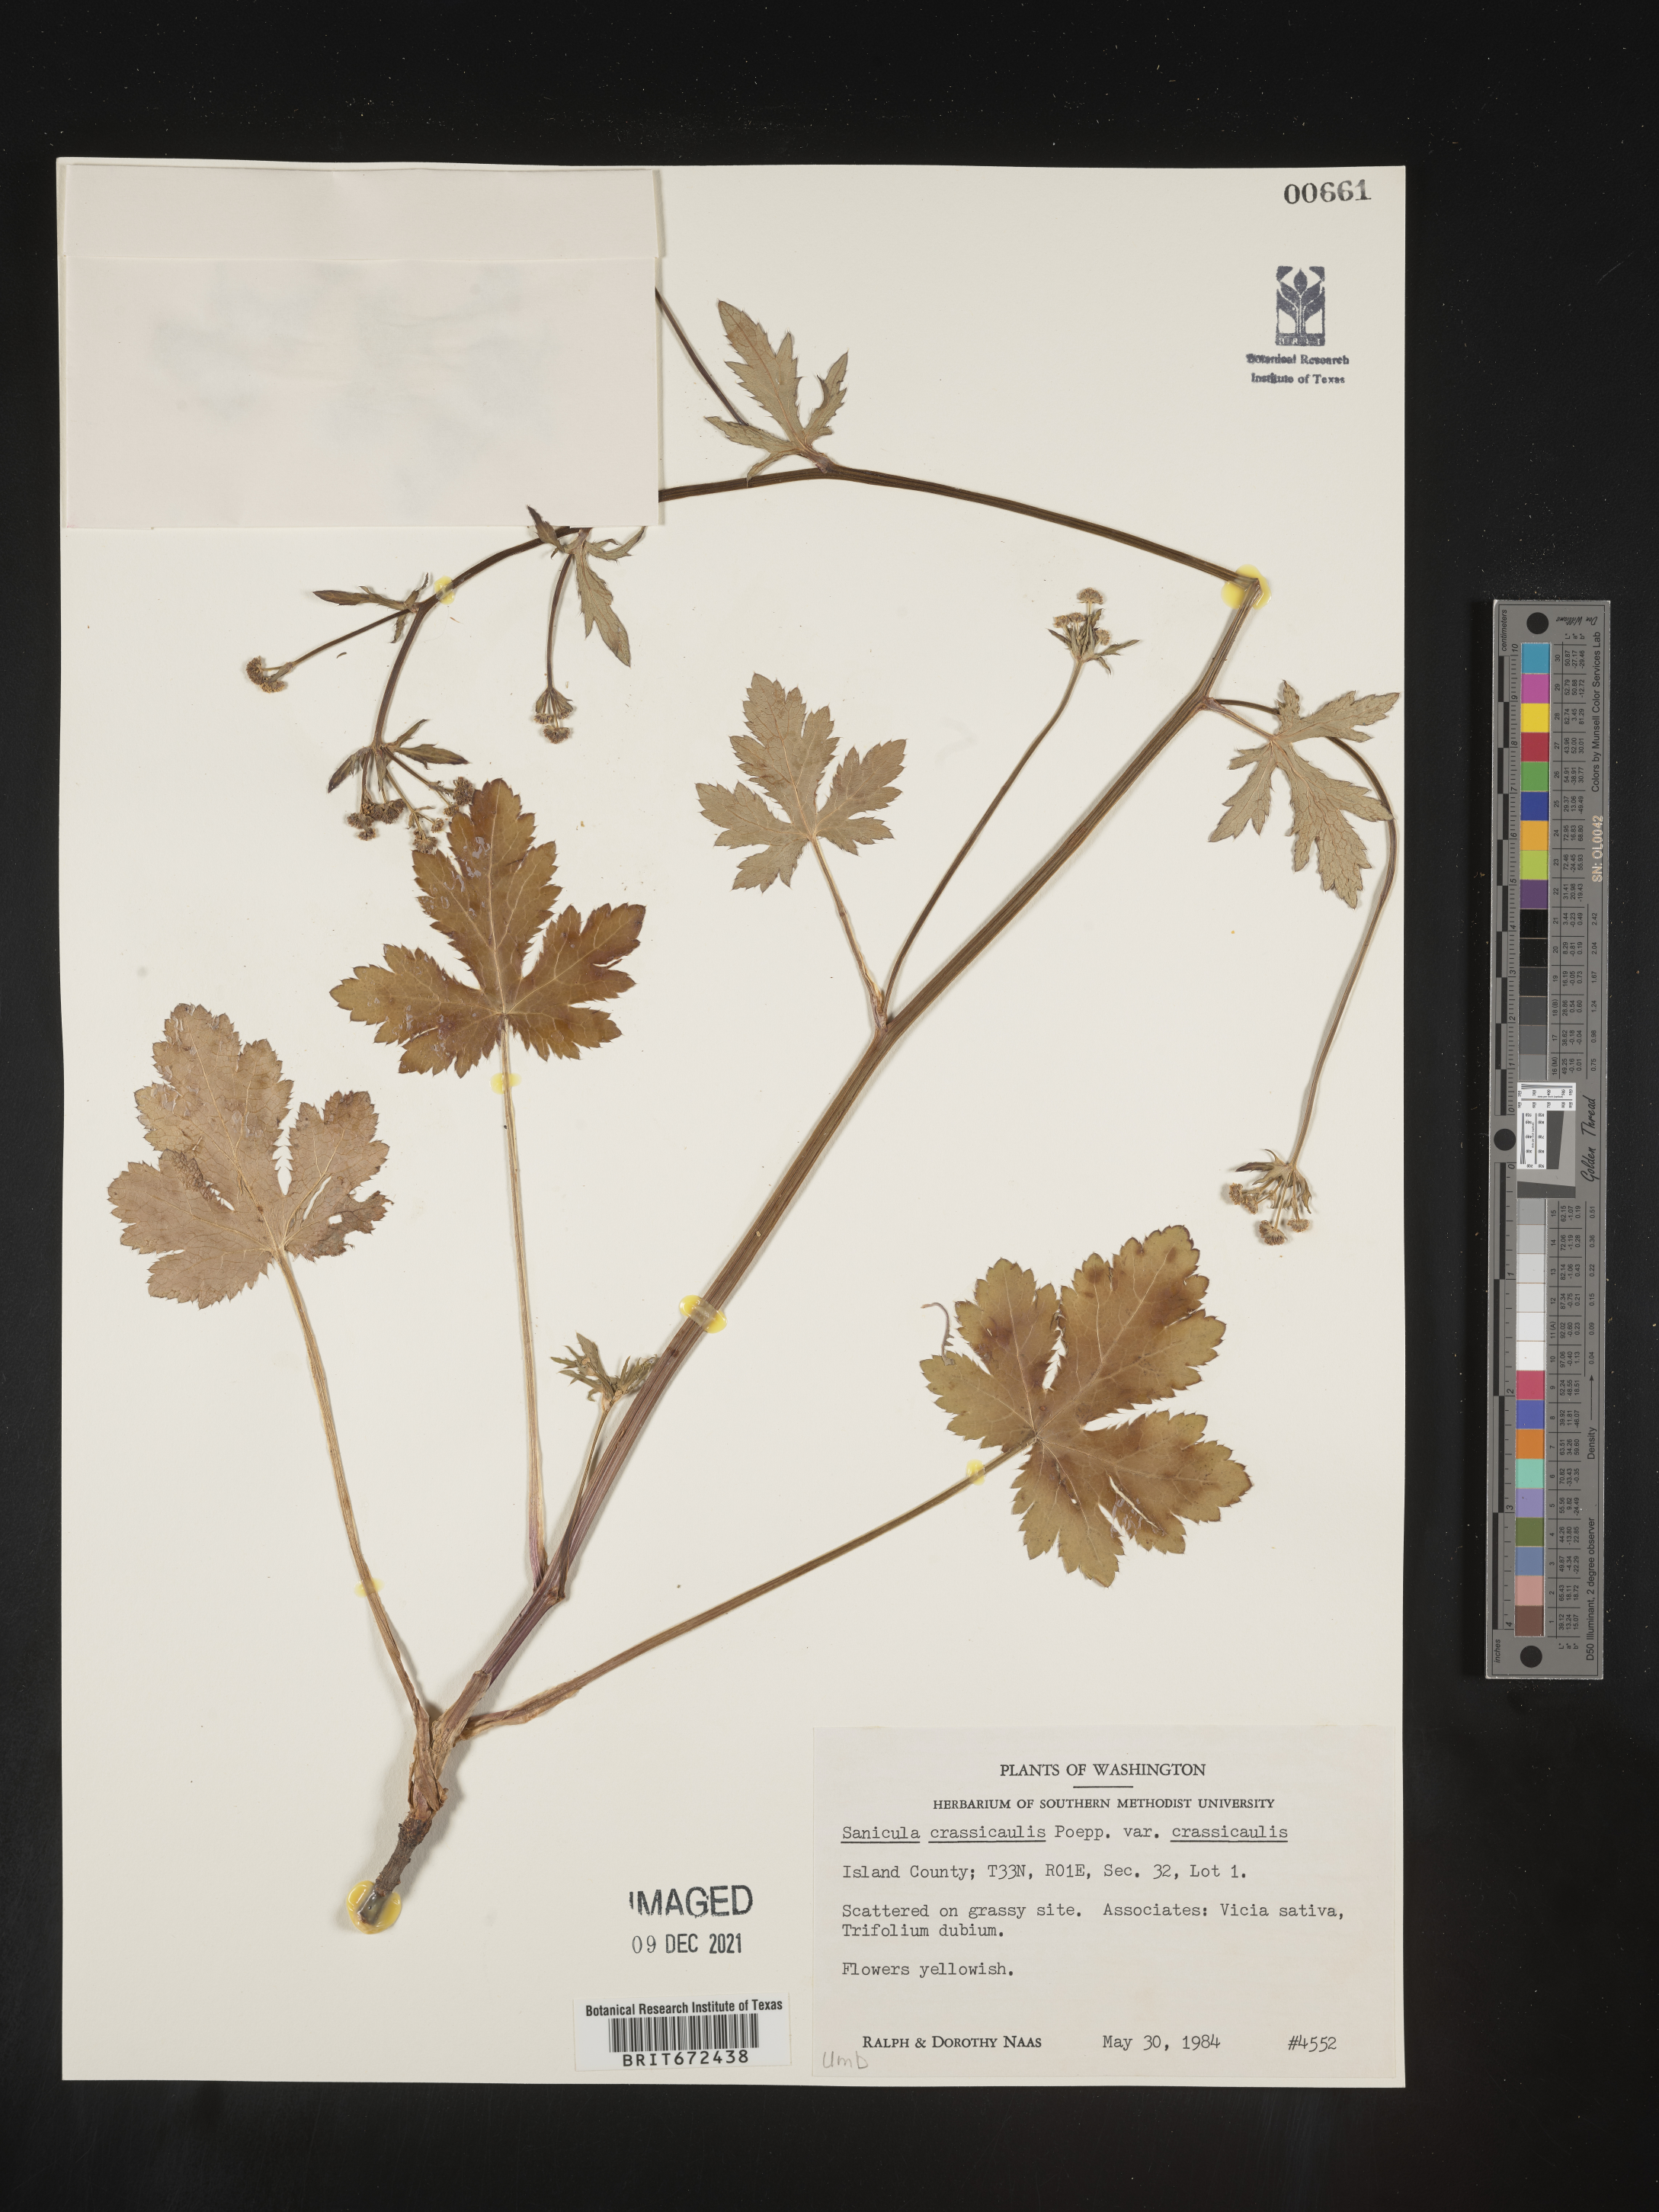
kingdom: Plantae
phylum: Tracheophyta
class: Magnoliopsida
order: Apiales
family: Apiaceae
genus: Sanicula
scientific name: Sanicula crassicaulis
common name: Western snakeroot
